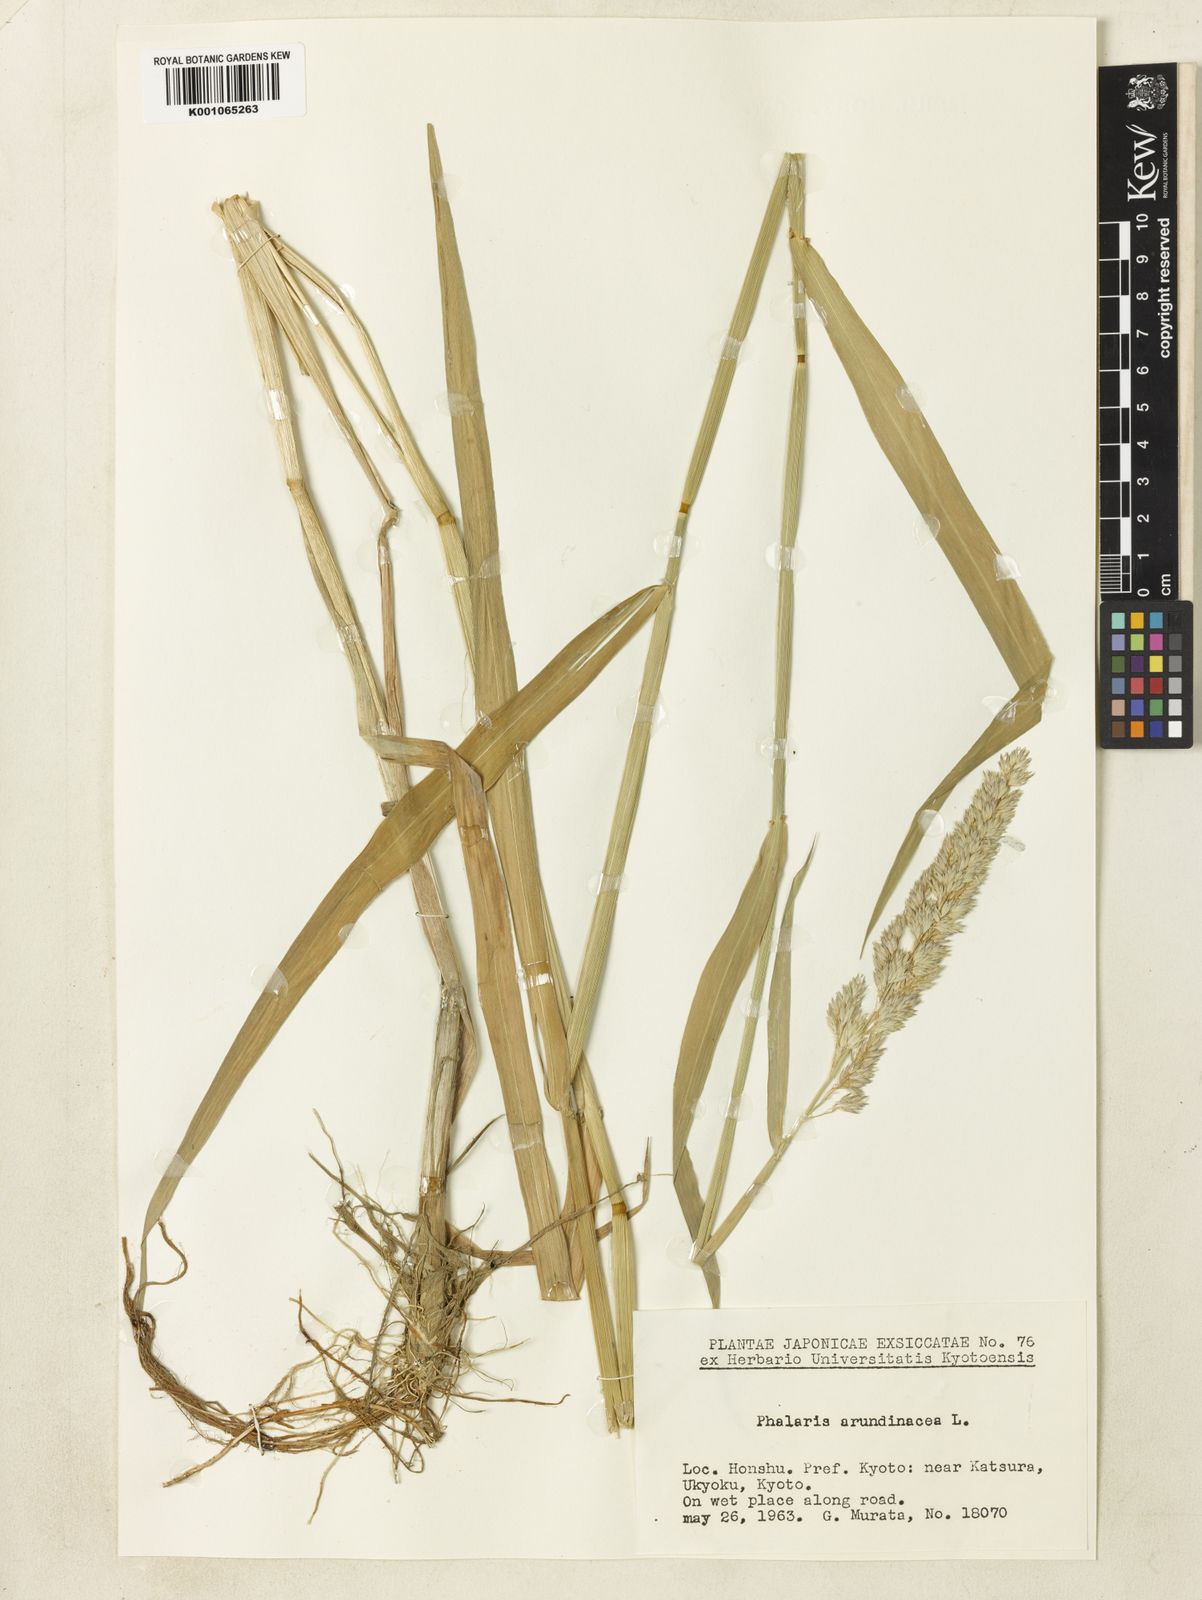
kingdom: Plantae
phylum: Tracheophyta
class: Liliopsida
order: Poales
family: Poaceae
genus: Phalaris
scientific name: Phalaris arundinacea
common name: Reed canary-grass
